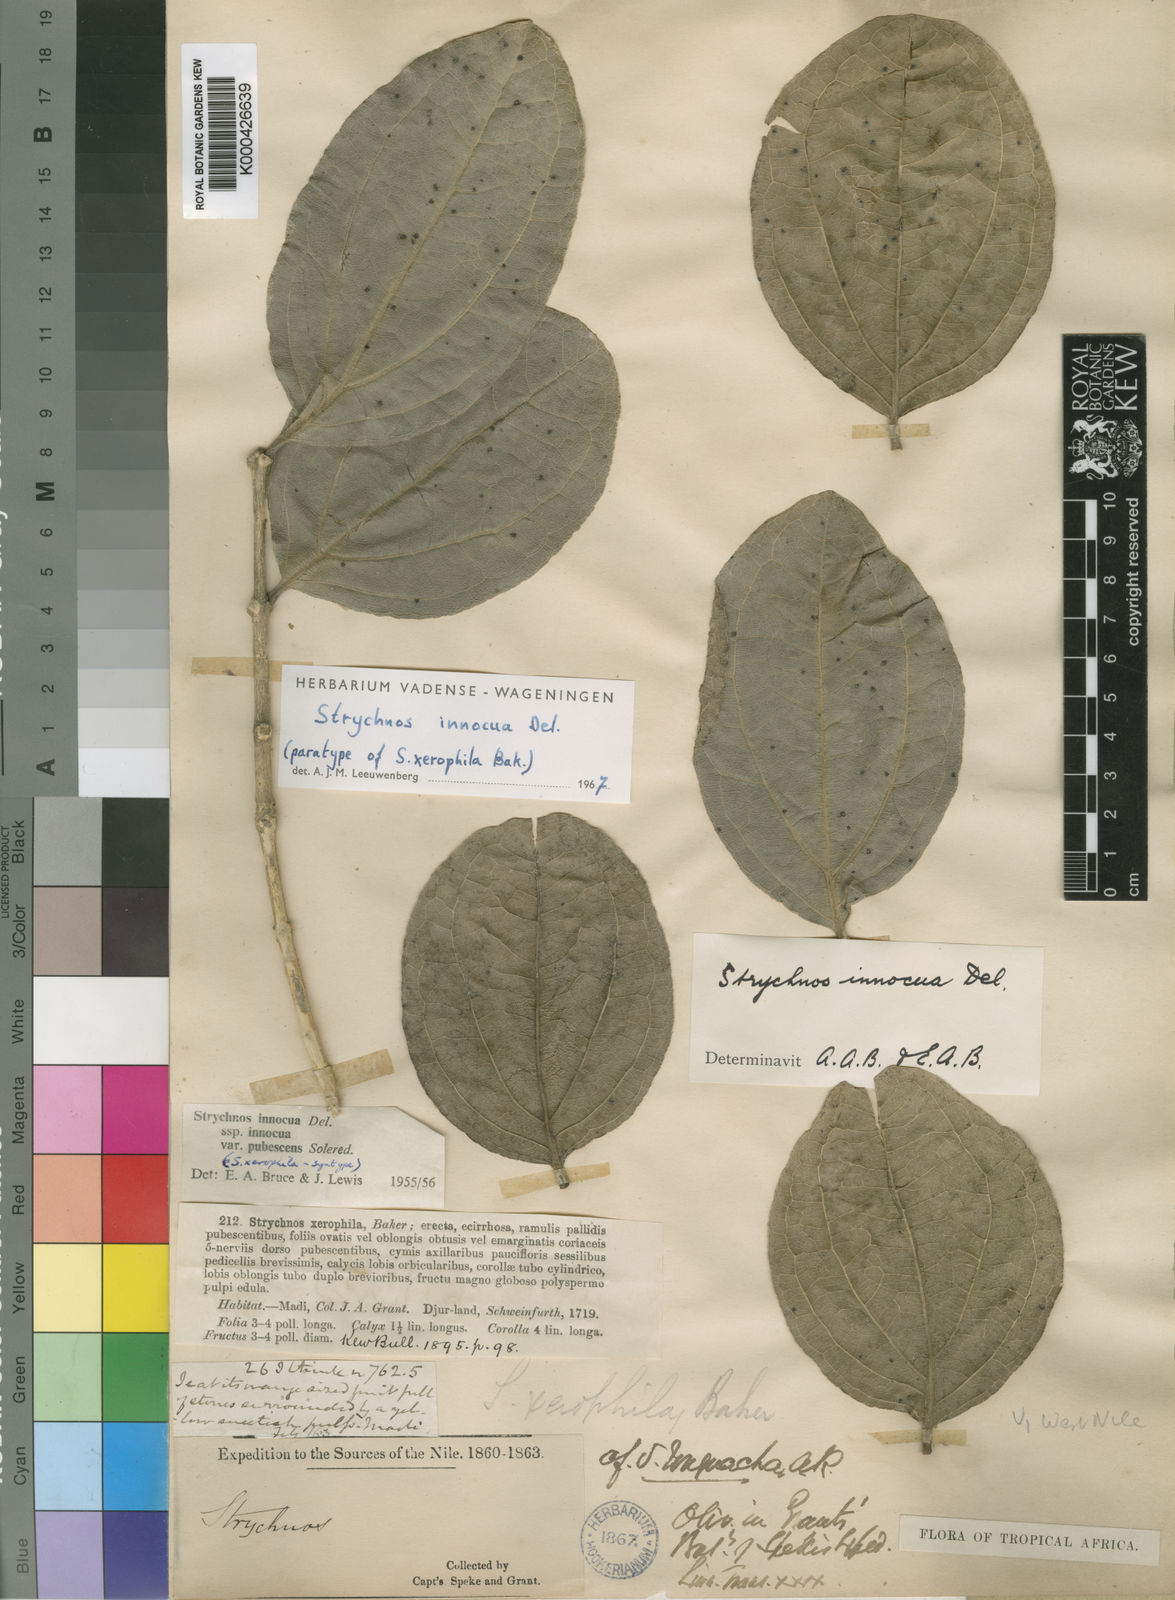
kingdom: Plantae
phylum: Tracheophyta
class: Magnoliopsida
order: Gentianales
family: Loganiaceae
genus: Strychnos
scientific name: Strychnos innocua
